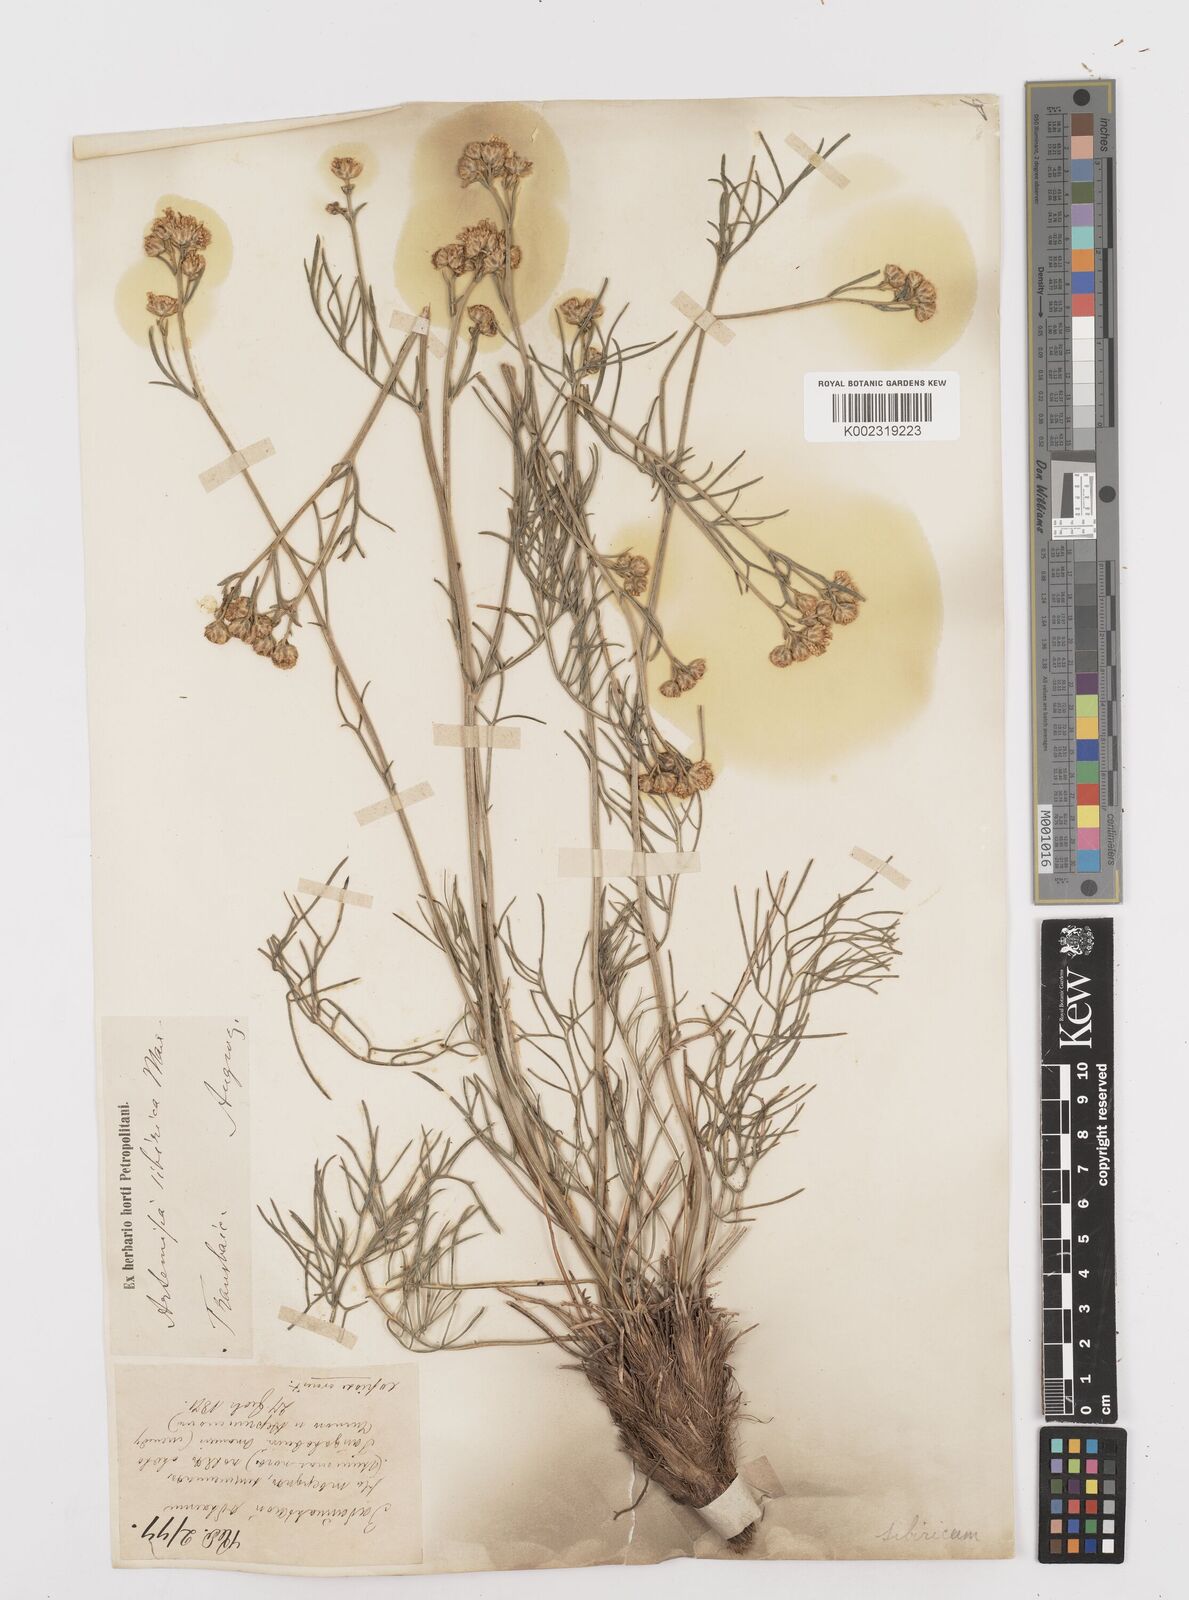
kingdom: Plantae
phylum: Tracheophyta
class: Magnoliopsida
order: Asterales
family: Asteraceae
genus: Filifolium
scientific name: Filifolium sibiricum
